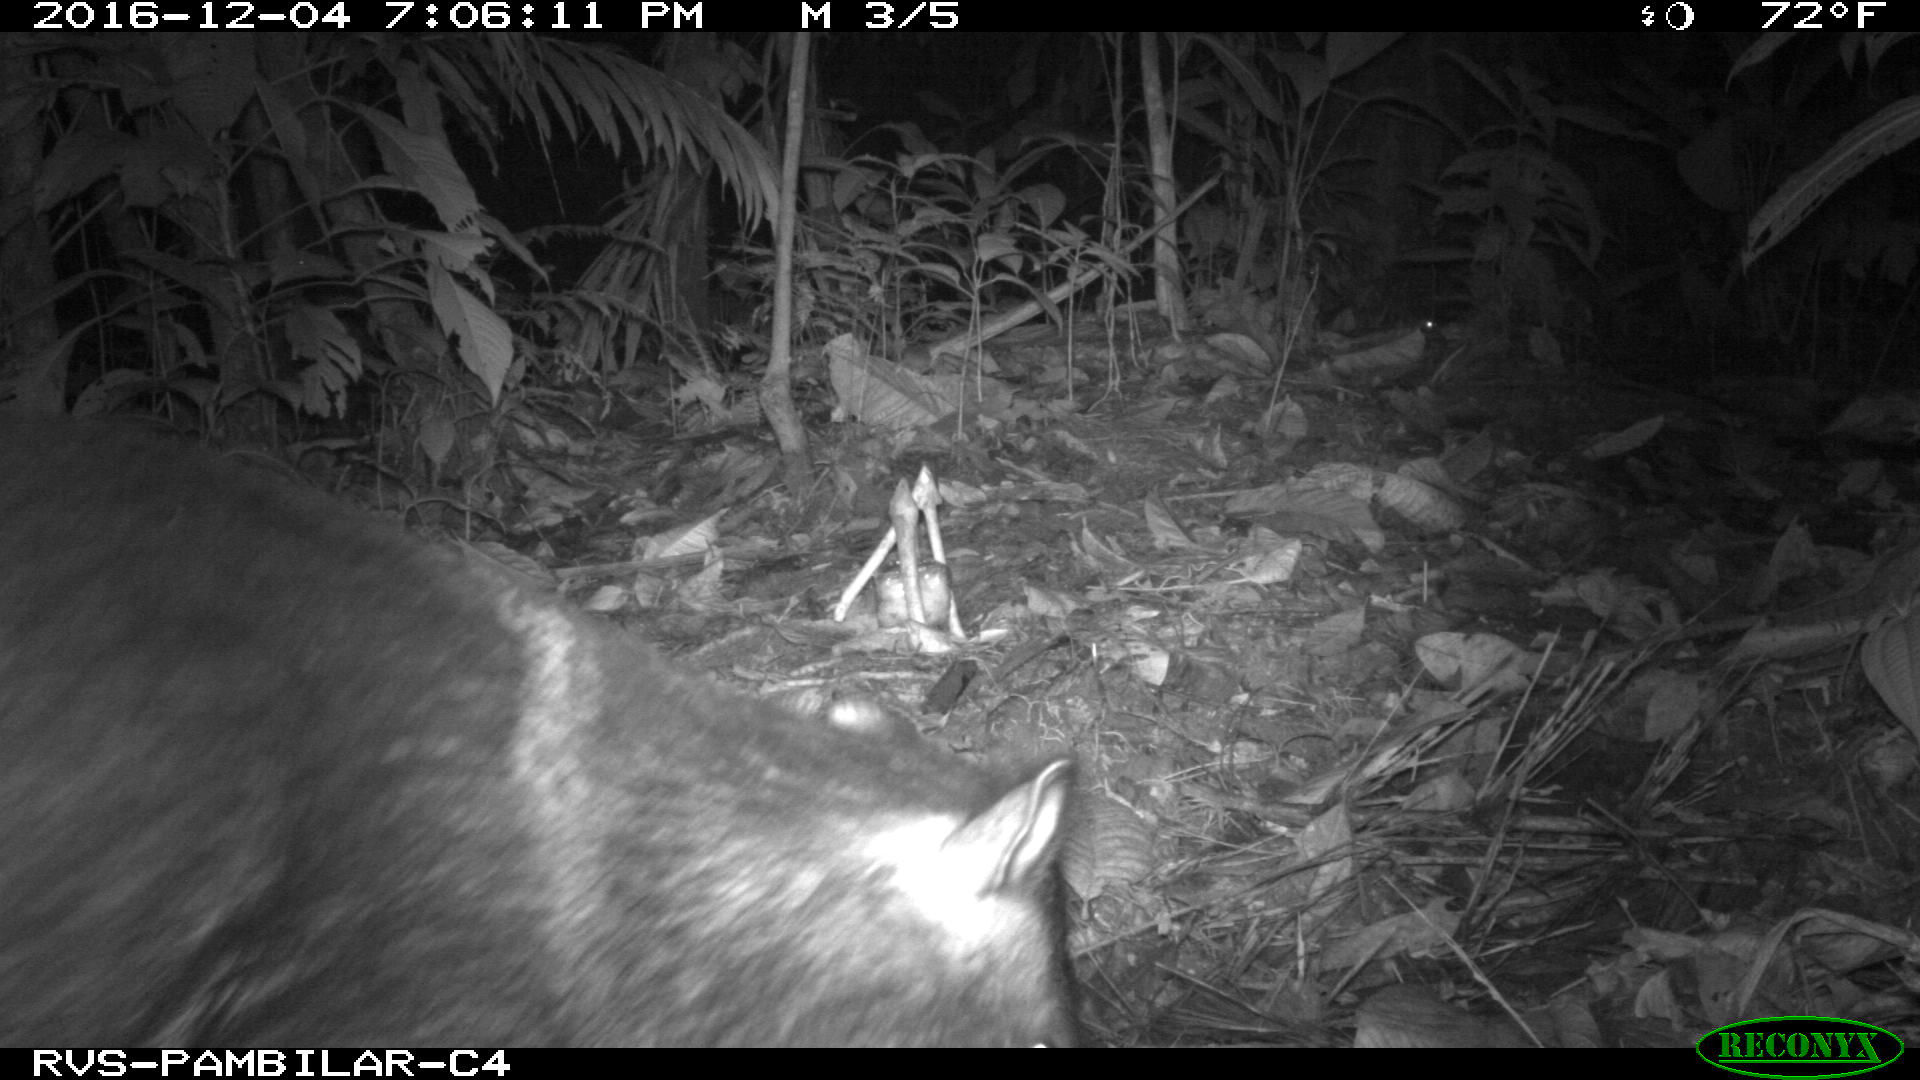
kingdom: Animalia
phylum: Chordata
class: Mammalia
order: Artiodactyla
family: Tayassuidae
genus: Pecari
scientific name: Pecari tajacu
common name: Collared peccary
